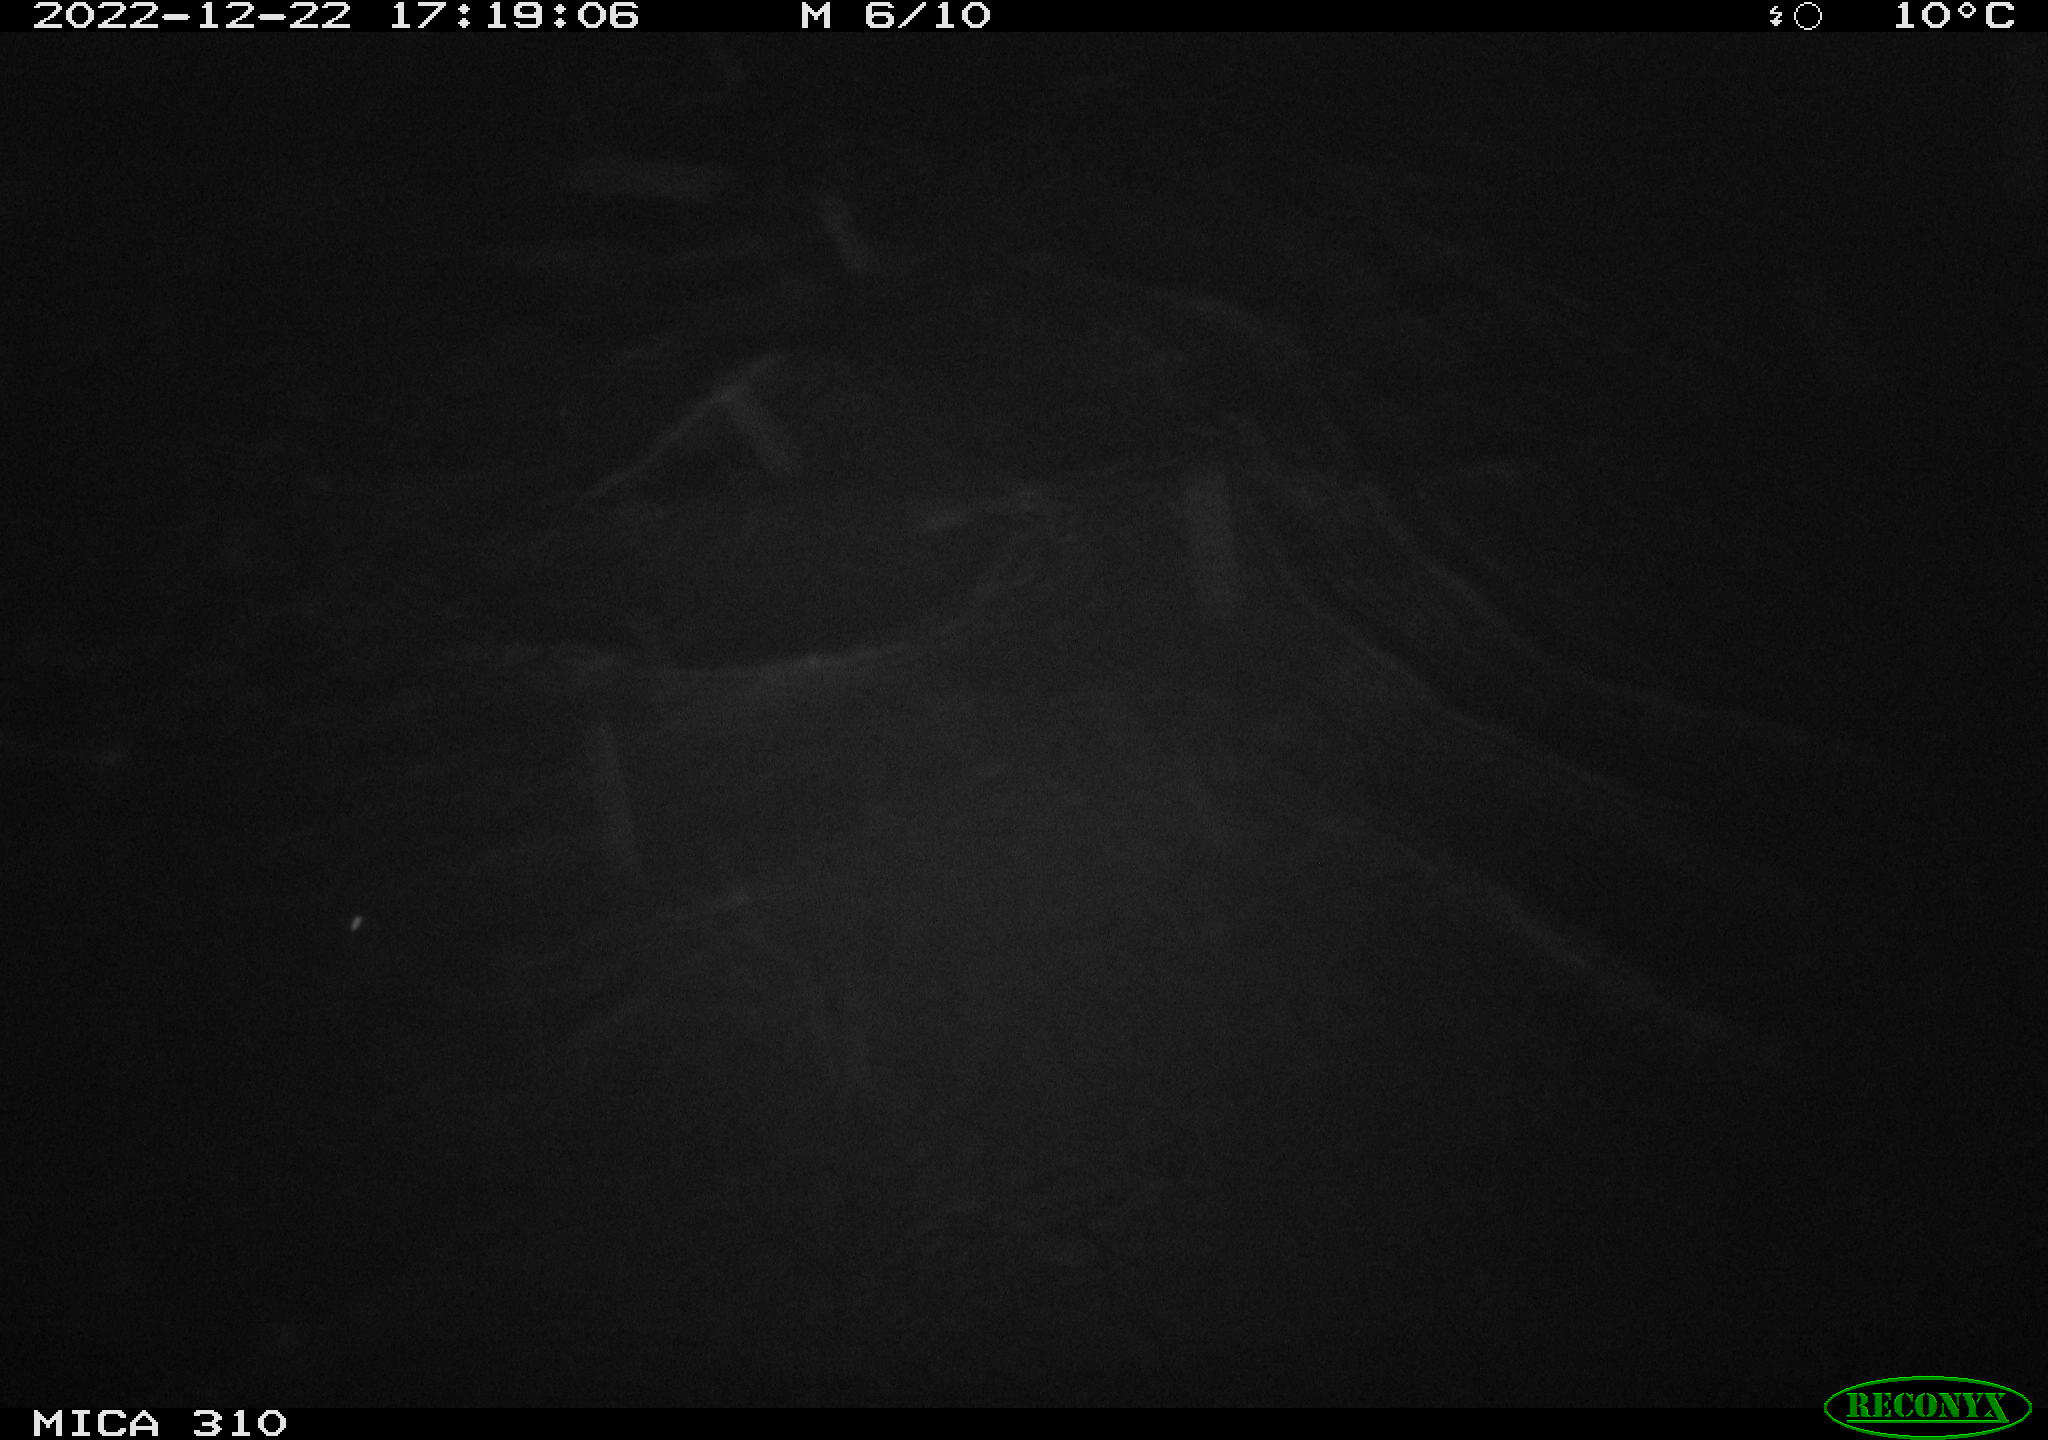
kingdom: Animalia
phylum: Chordata
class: Aves
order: Anseriformes
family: Anatidae
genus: Anas
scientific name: Anas
